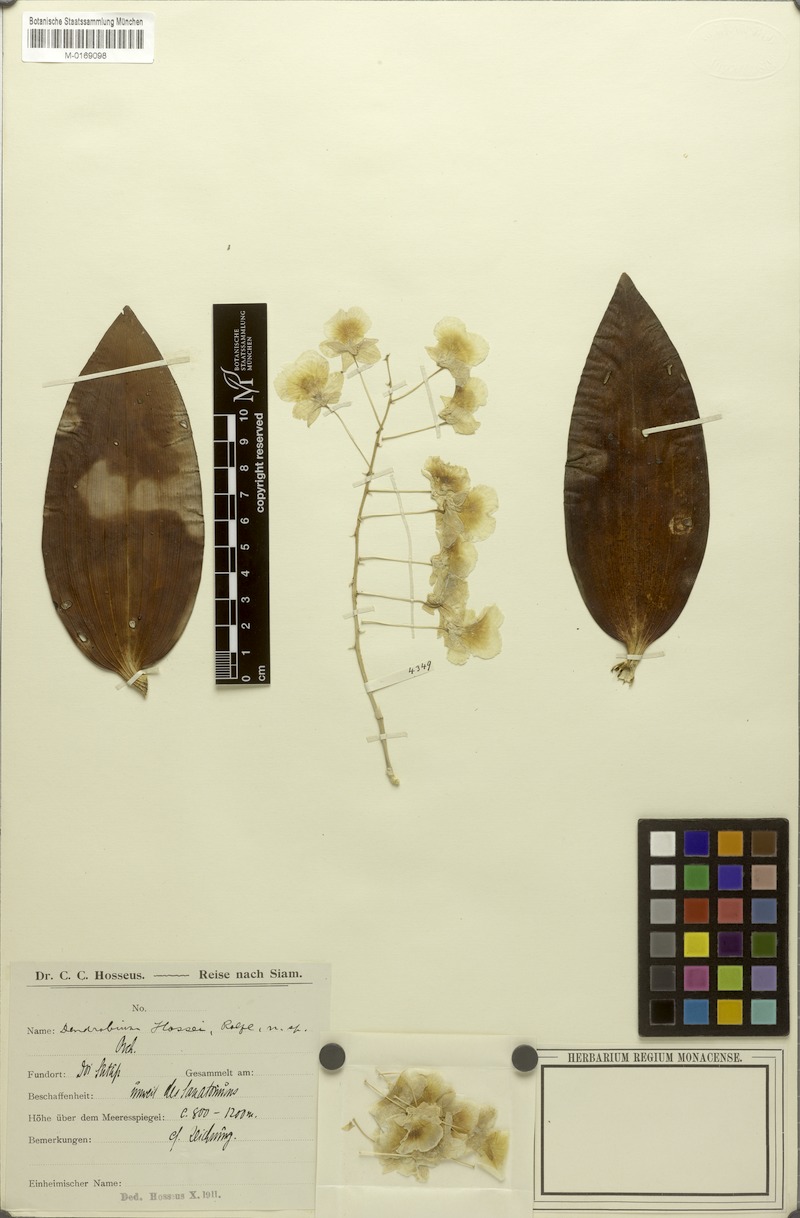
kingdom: Plantae
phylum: Tracheophyta
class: Liliopsida
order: Asparagales
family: Orchidaceae
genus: Dendrobium
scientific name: Dendrobium hosei
